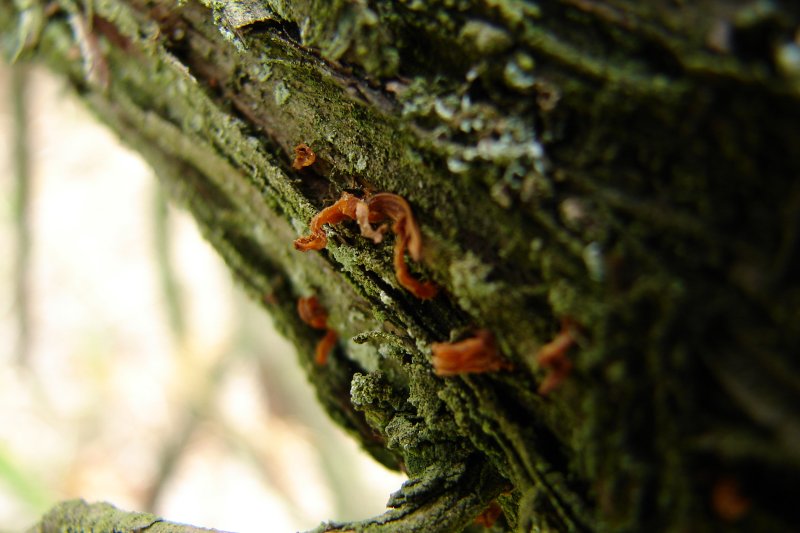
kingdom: Fungi
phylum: Basidiomycota
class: Pucciniomycetes
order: Pucciniales
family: Gymnosporangiaceae
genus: Gymnosporangium
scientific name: Gymnosporangium clavariiforme
